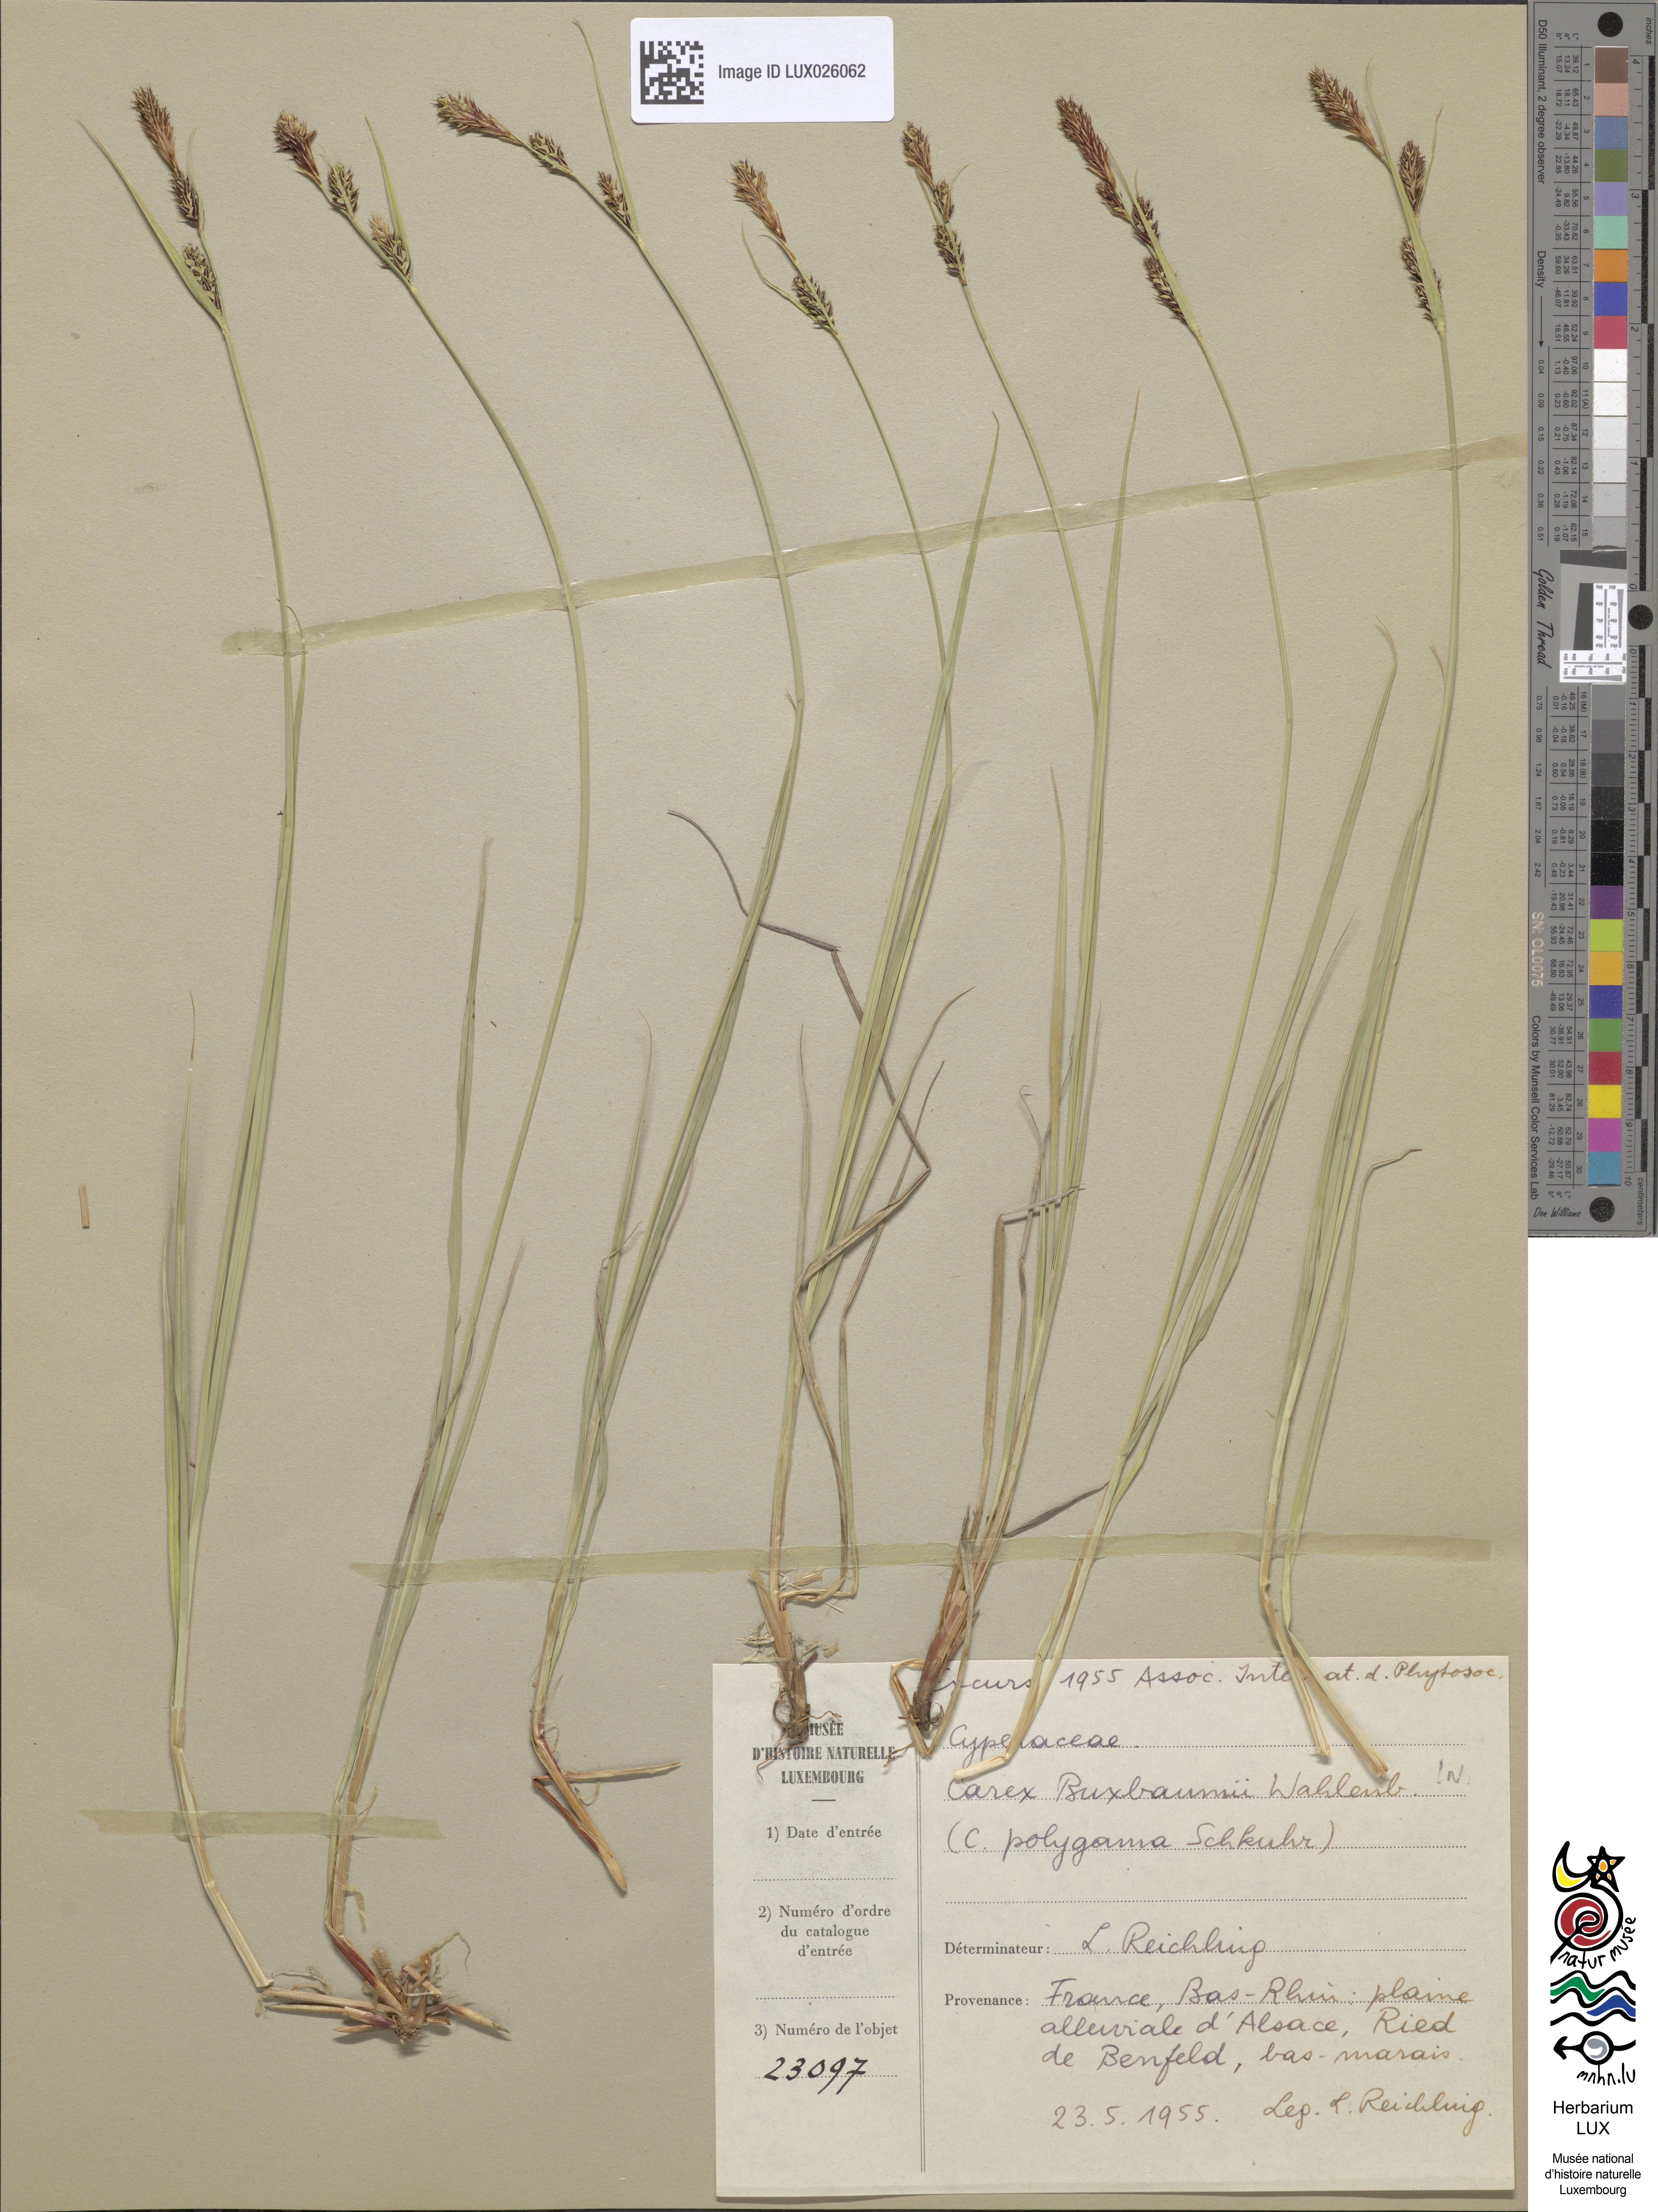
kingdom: Plantae
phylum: Tracheophyta
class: Liliopsida
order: Poales
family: Cyperaceae
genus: Carex
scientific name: Carex buxbaumii
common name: Club sedge
